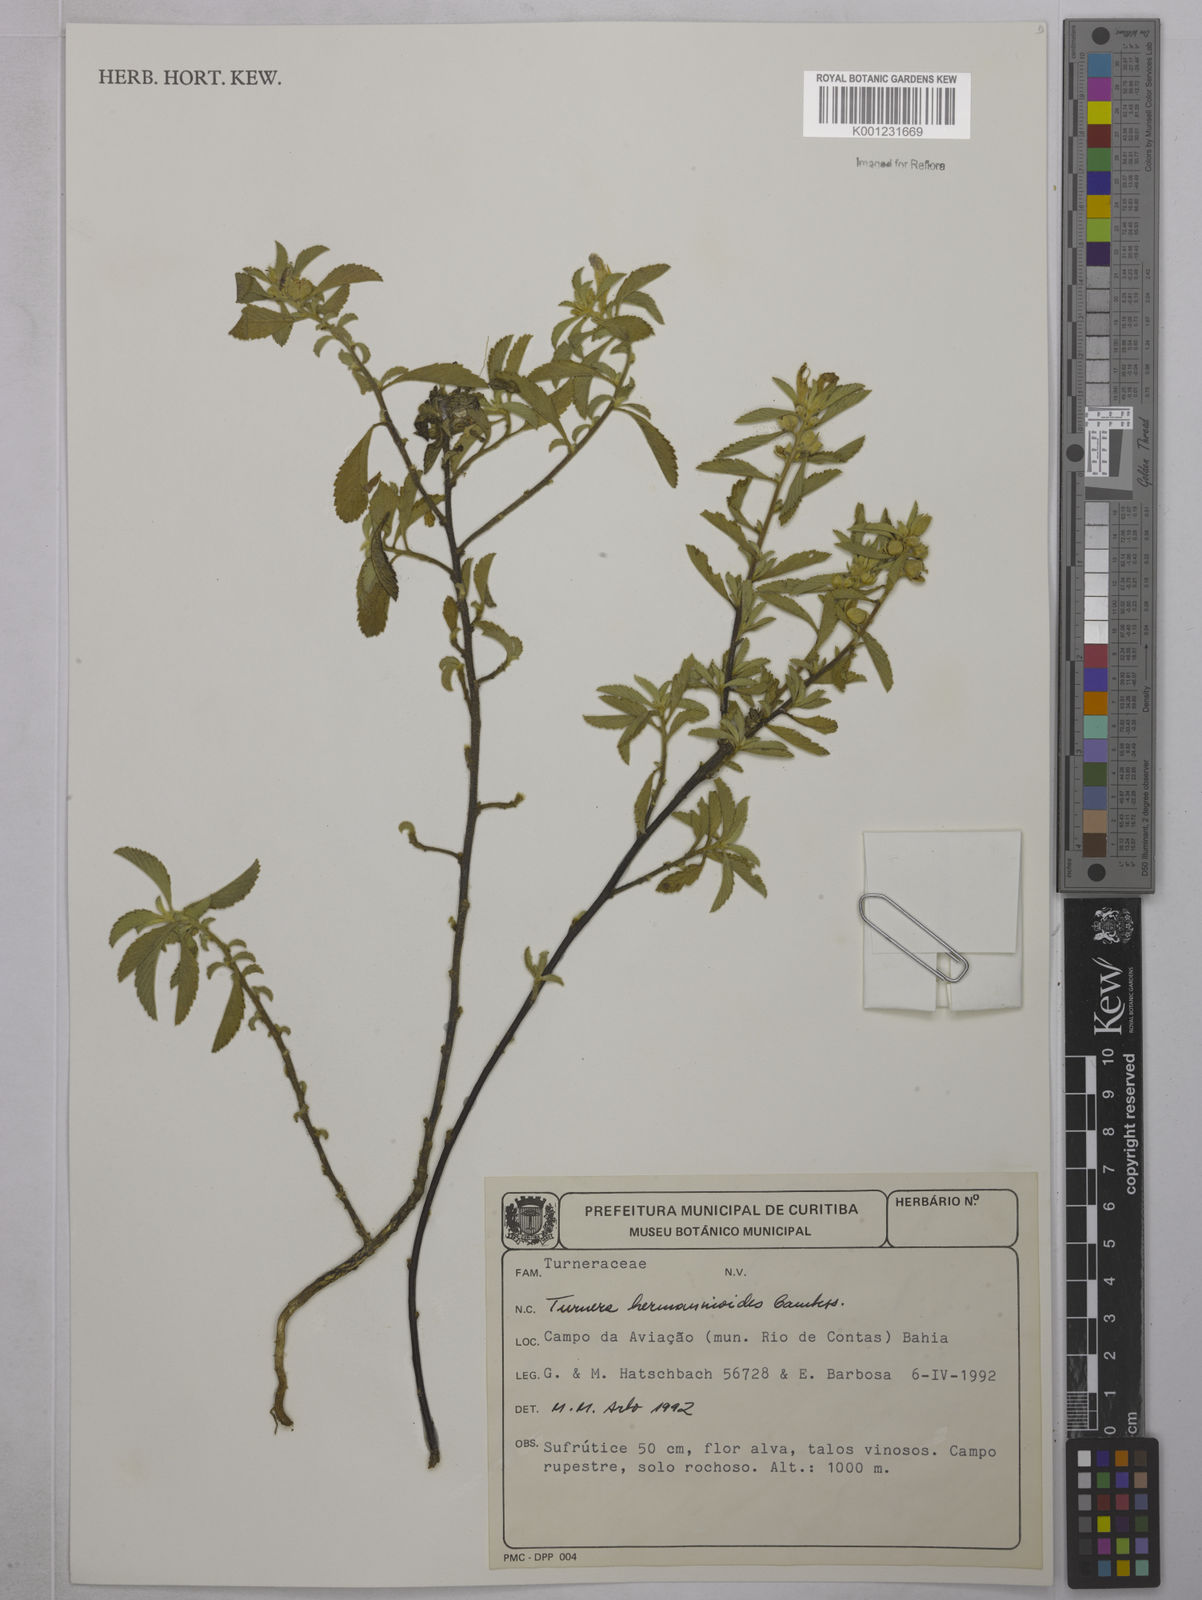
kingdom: Plantae
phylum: Tracheophyta
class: Magnoliopsida
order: Malpighiales
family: Turneraceae
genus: Turnera
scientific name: Turnera hermannioides
